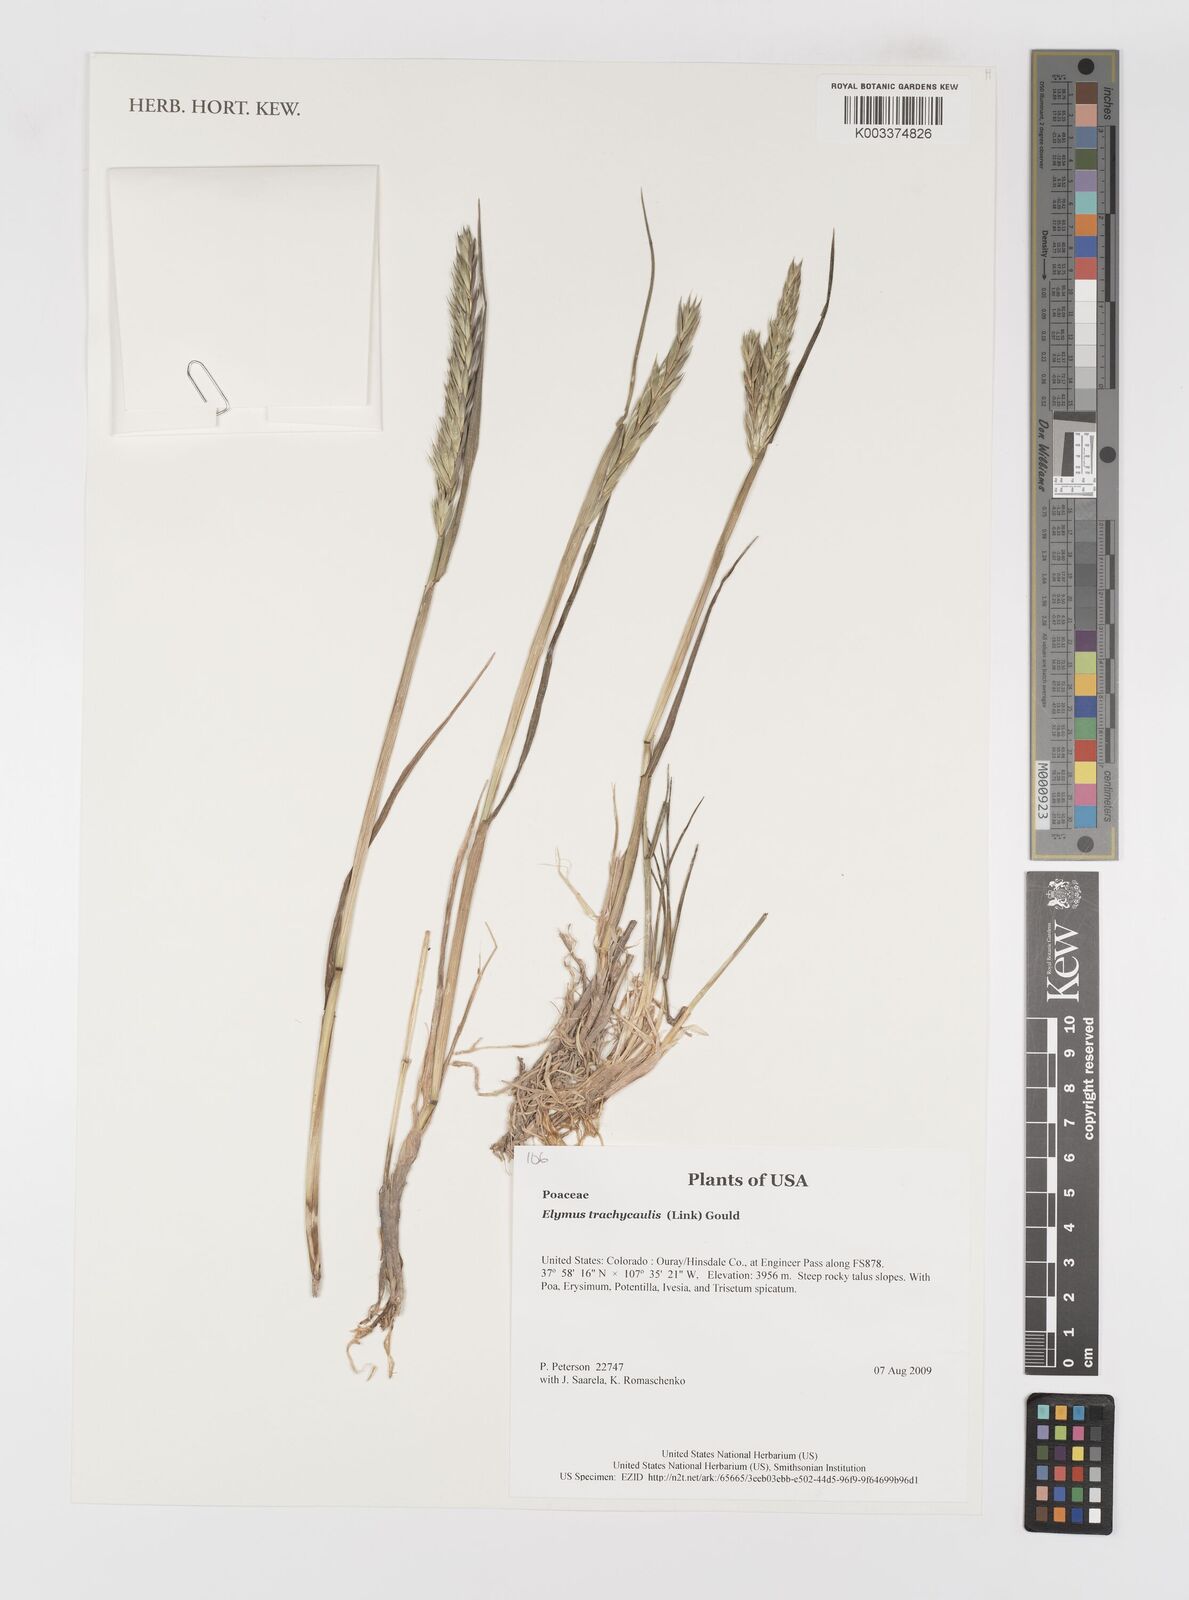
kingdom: Plantae
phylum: Tracheophyta
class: Liliopsida
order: Poales
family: Poaceae
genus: Elymus
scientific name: Elymus violaceus
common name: Arctic wheatgrass
